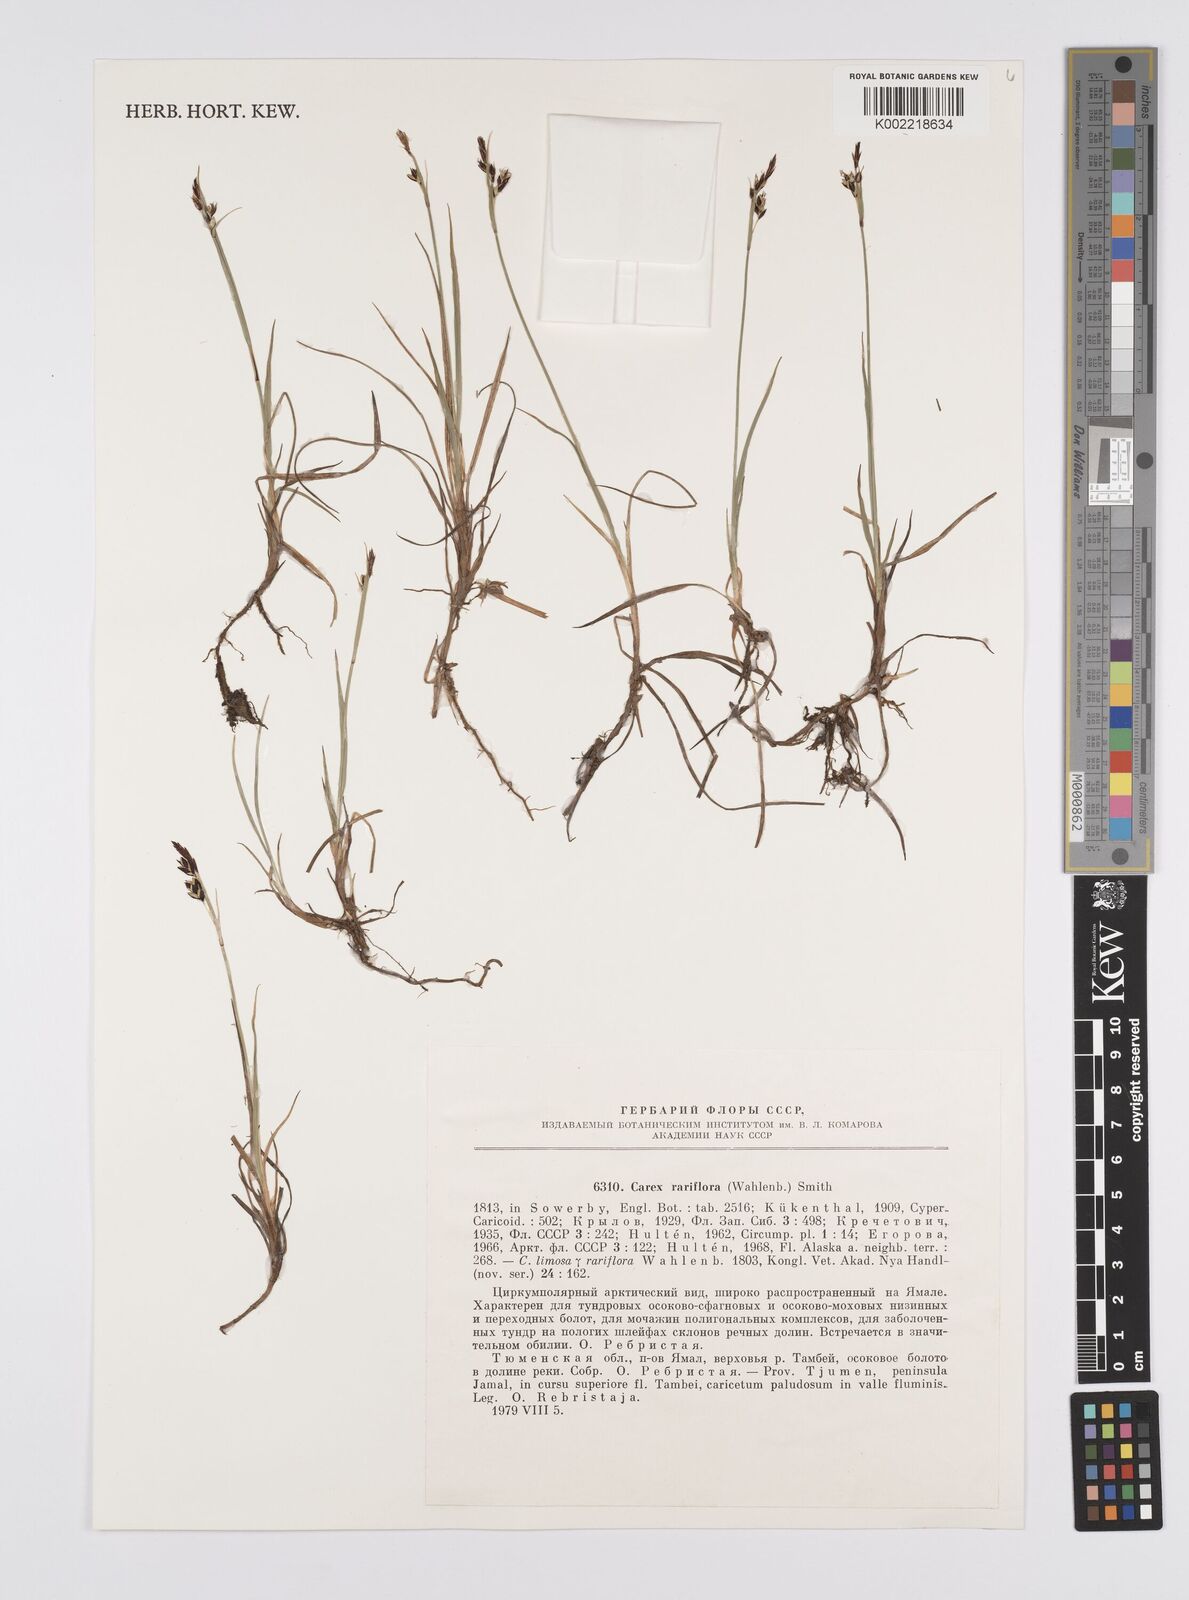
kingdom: Plantae
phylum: Tracheophyta
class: Liliopsida
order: Poales
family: Cyperaceae
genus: Carex
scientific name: Carex rariflora
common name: Loose-flowered alpine sedge
